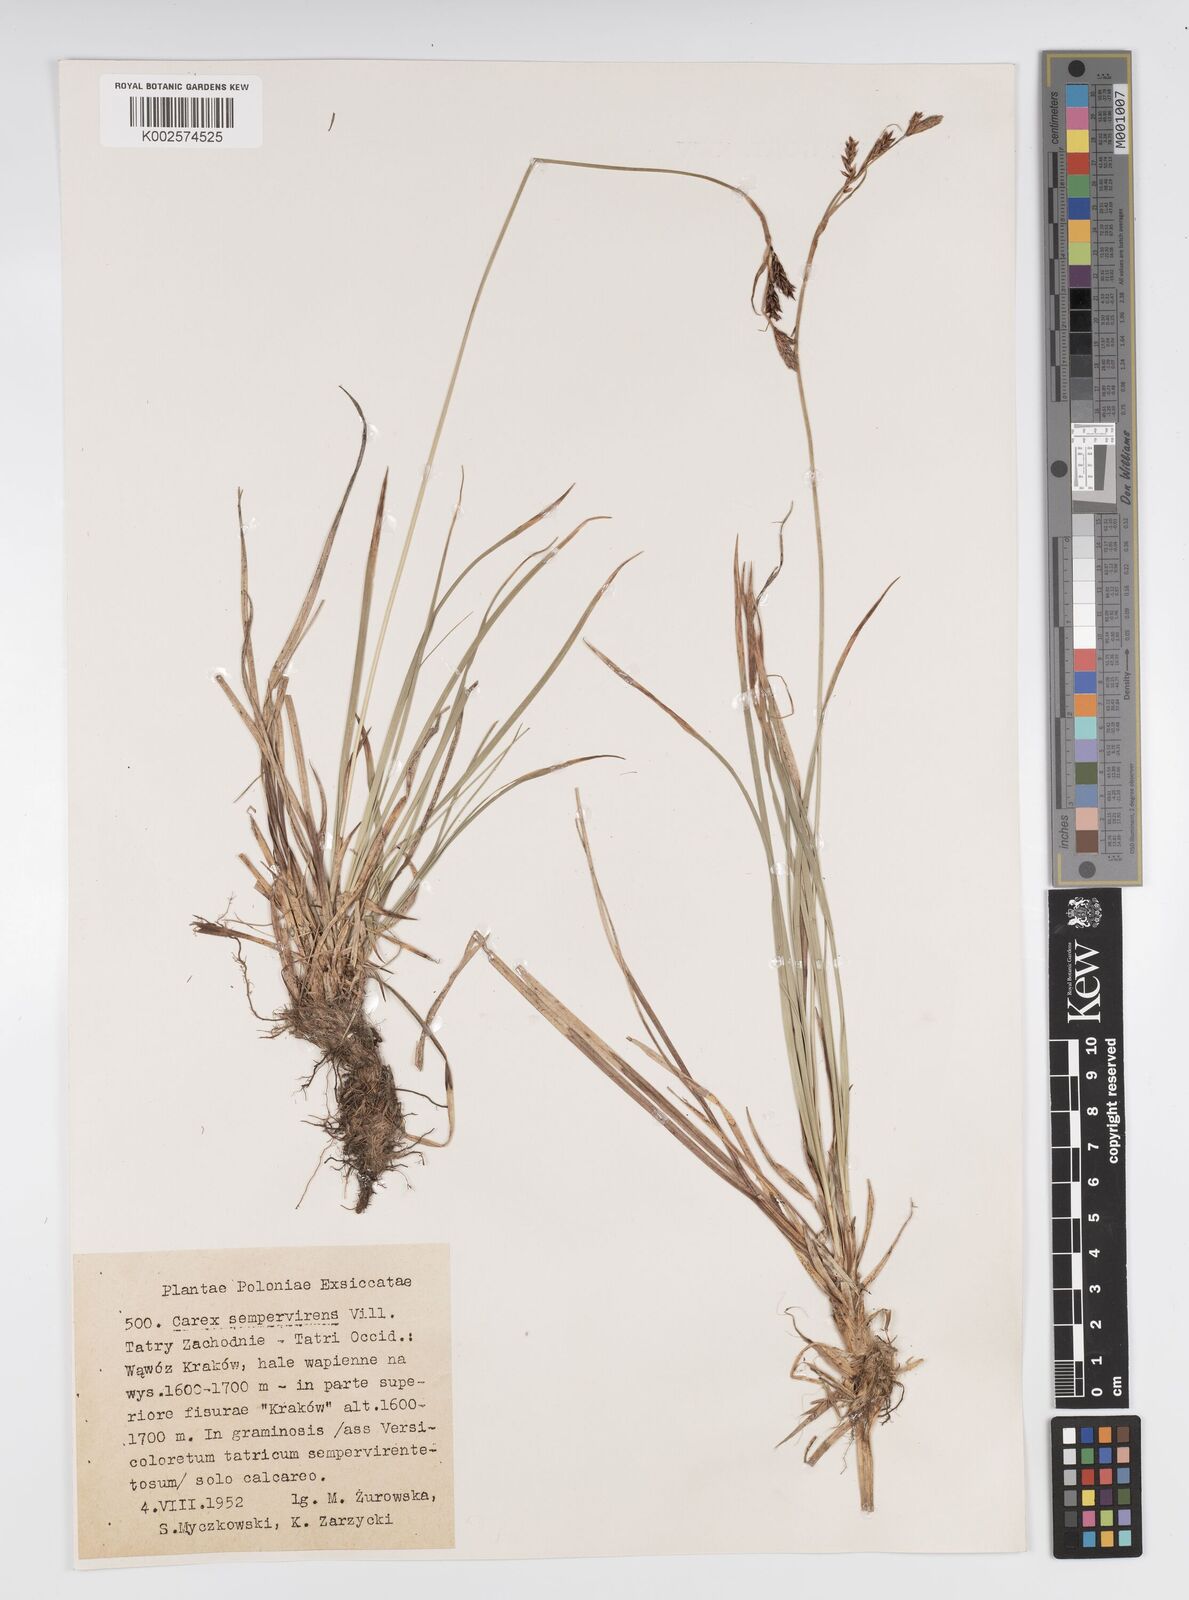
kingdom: Plantae
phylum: Tracheophyta
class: Liliopsida
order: Poales
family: Cyperaceae
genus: Carex
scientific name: Carex sempervirens
